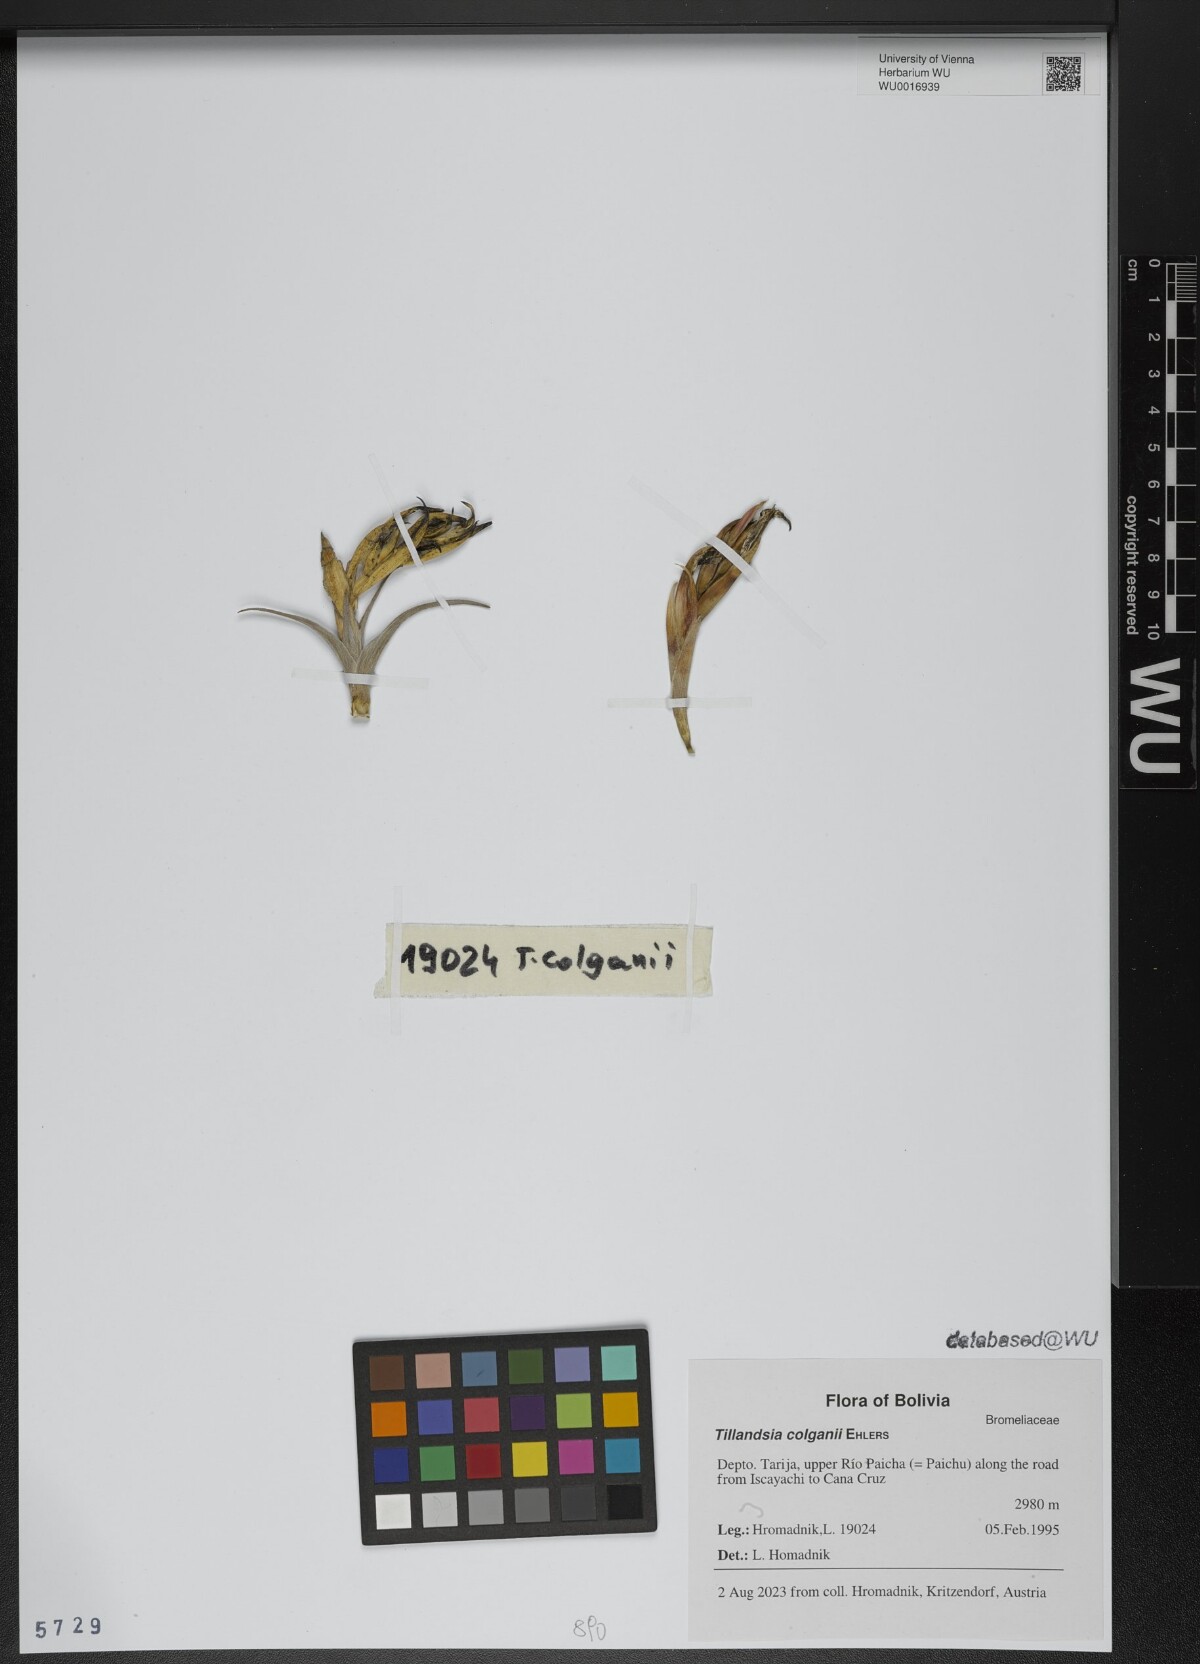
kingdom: Plantae
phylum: Tracheophyta
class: Liliopsida
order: Poales
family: Bromeliaceae
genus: Tillandsia
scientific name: Tillandsia colganii
